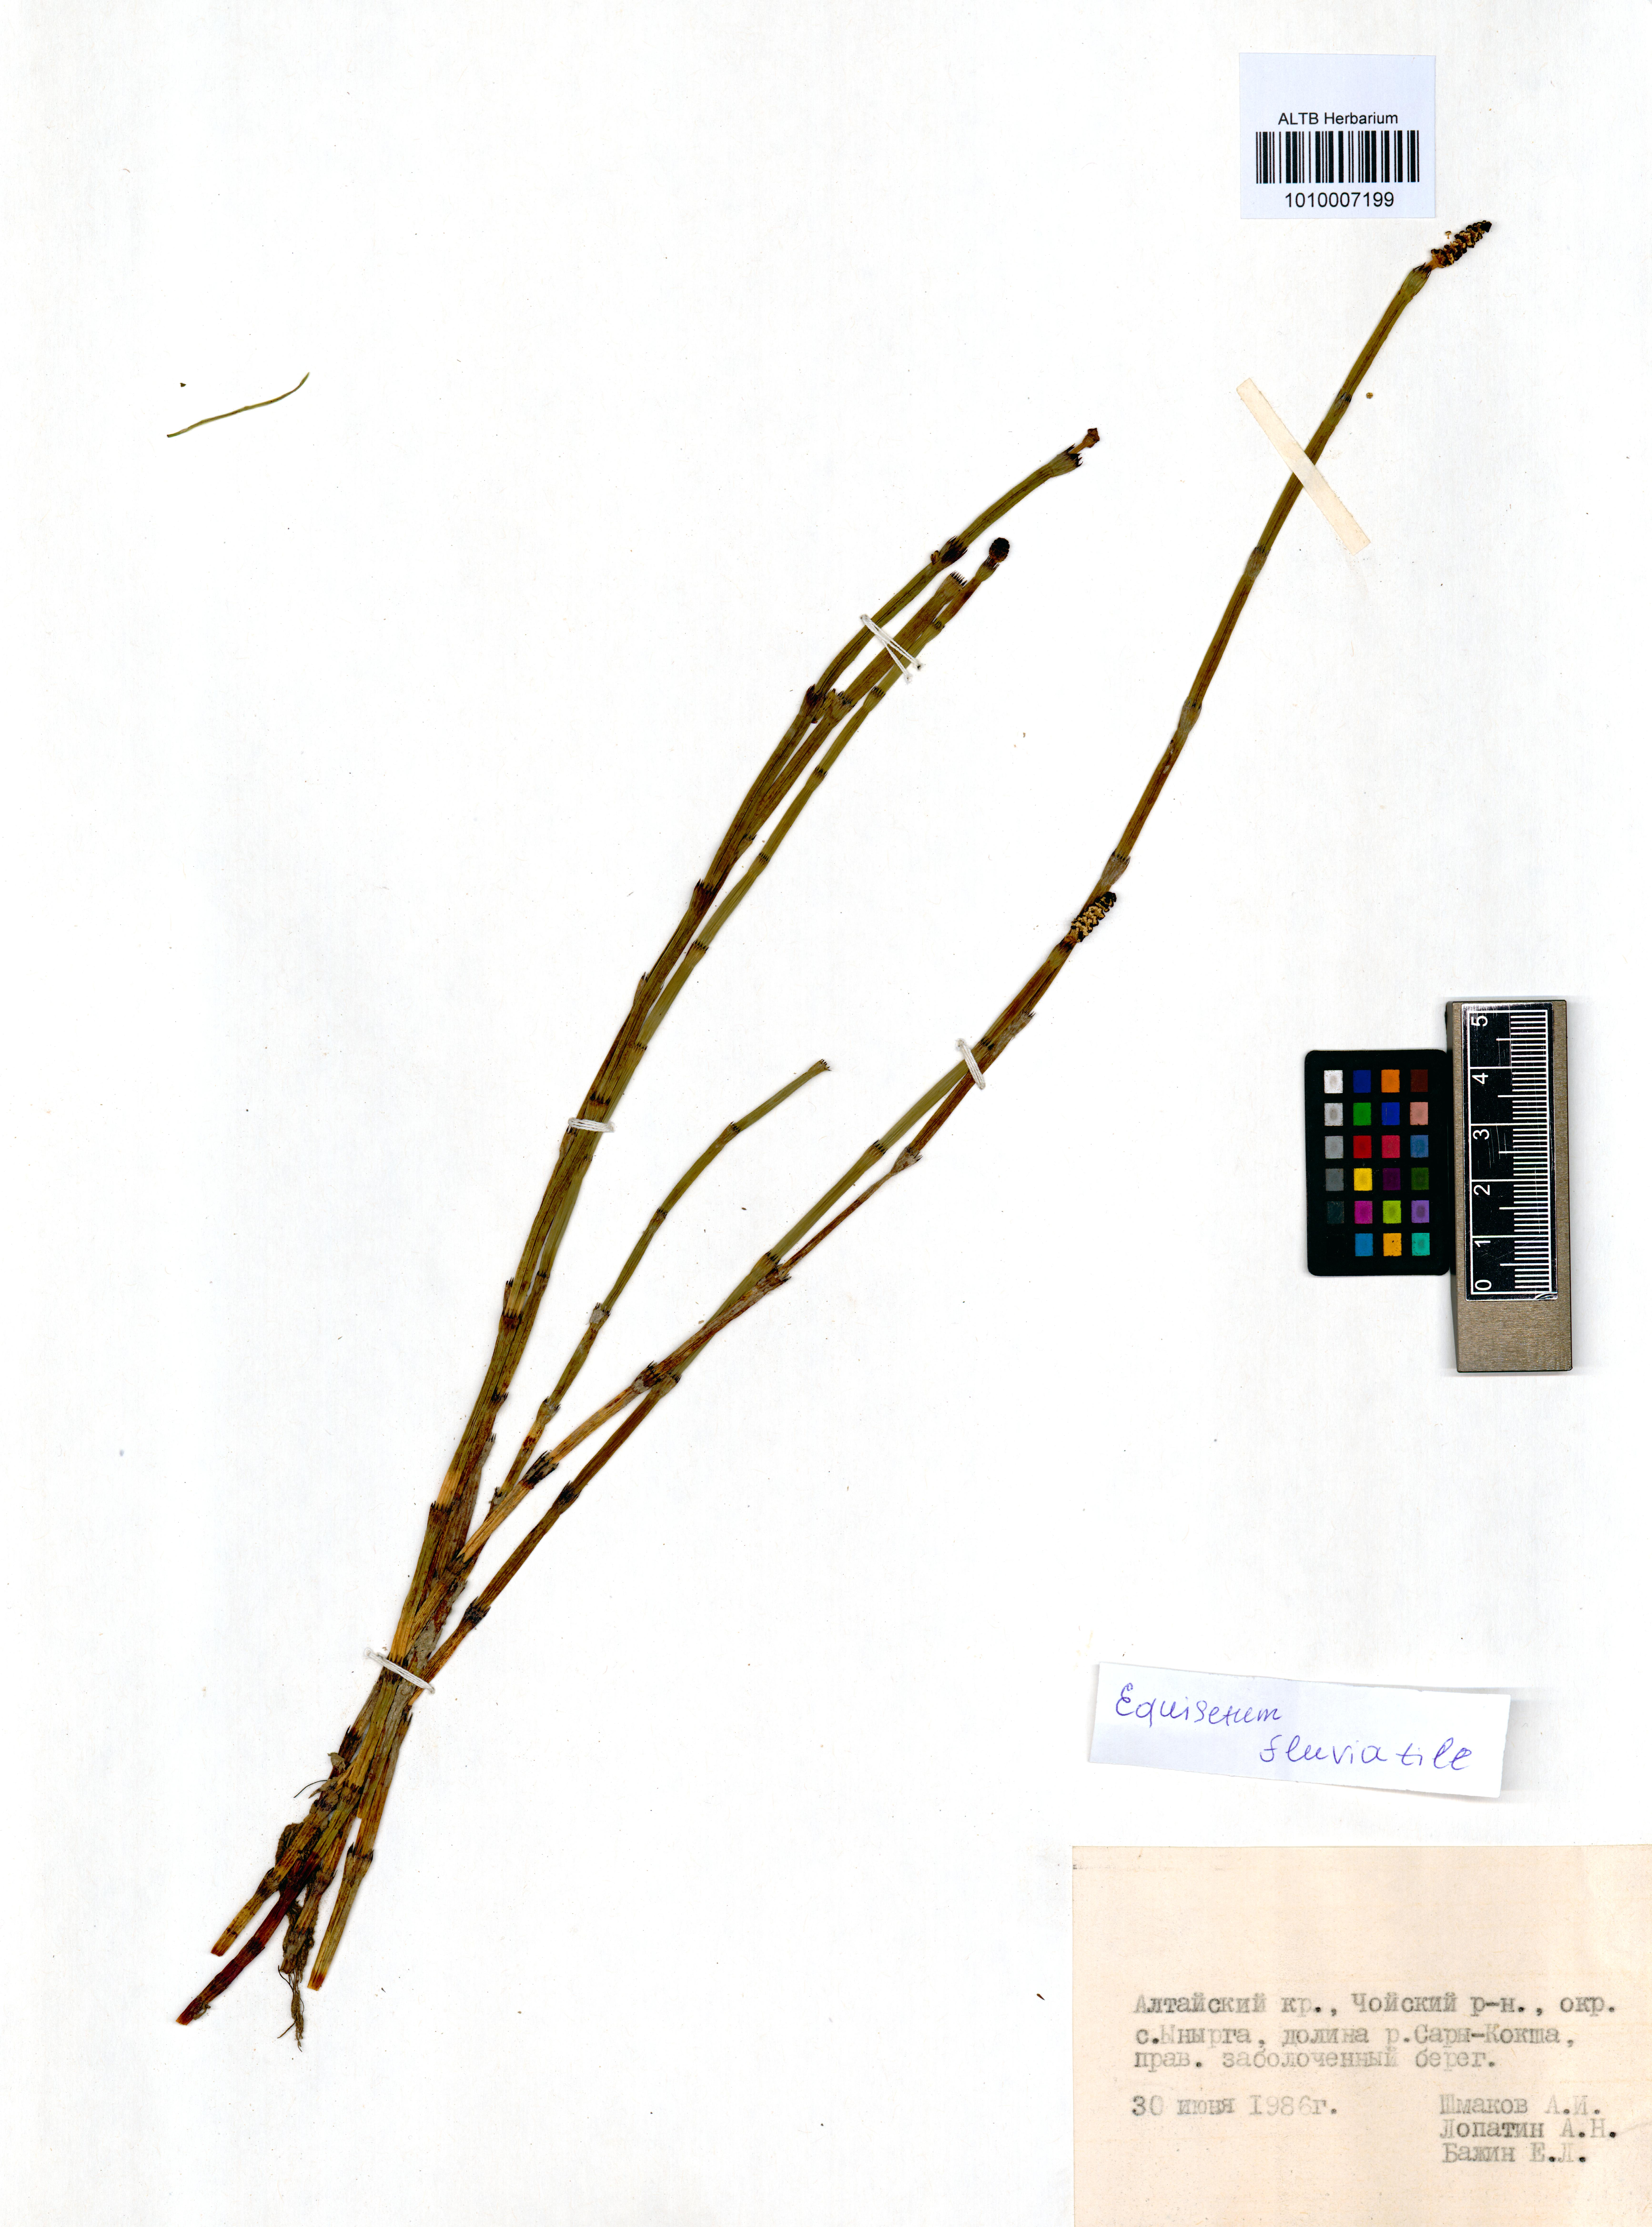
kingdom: Plantae
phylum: Tracheophyta
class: Polypodiopsida
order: Equisetales
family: Equisetaceae
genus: Equisetum
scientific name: Equisetum fluviatile
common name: Water horsetail
